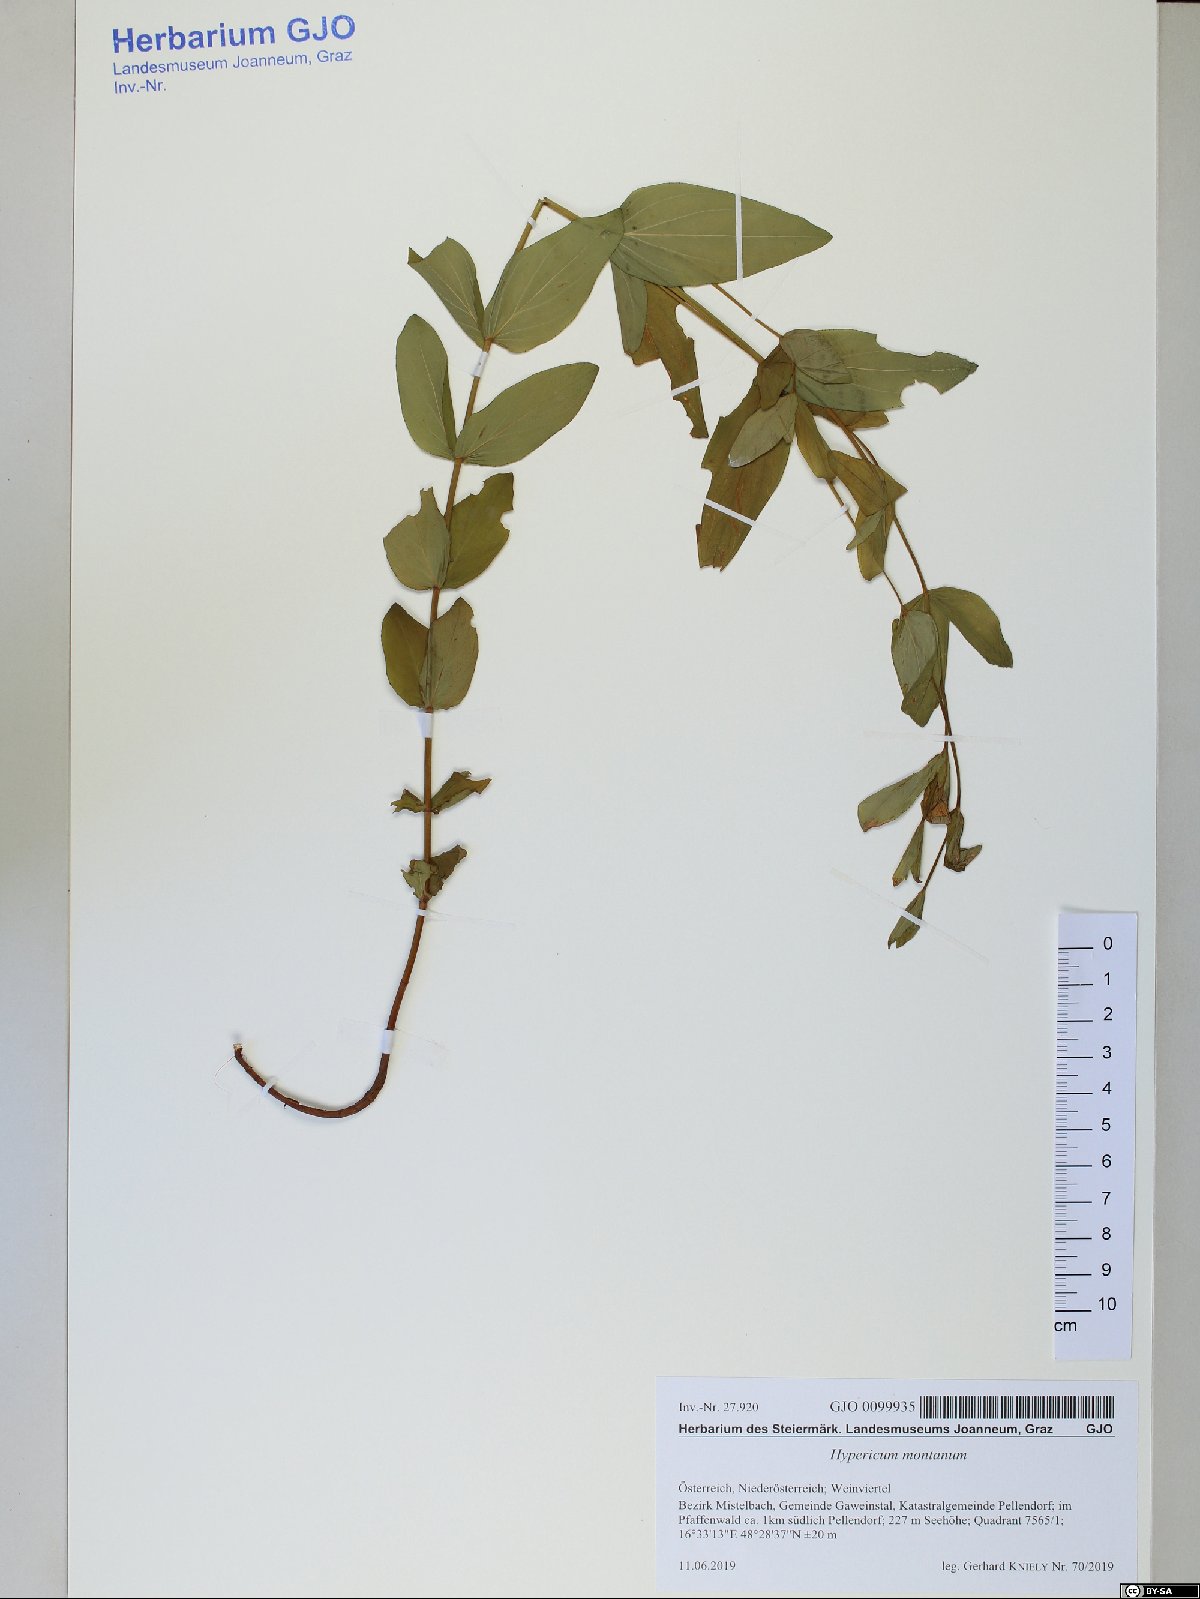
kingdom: Plantae
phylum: Tracheophyta
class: Magnoliopsida
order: Malpighiales
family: Hypericaceae
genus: Hypericum
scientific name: Hypericum montanum
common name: Pale st. john's-wort
